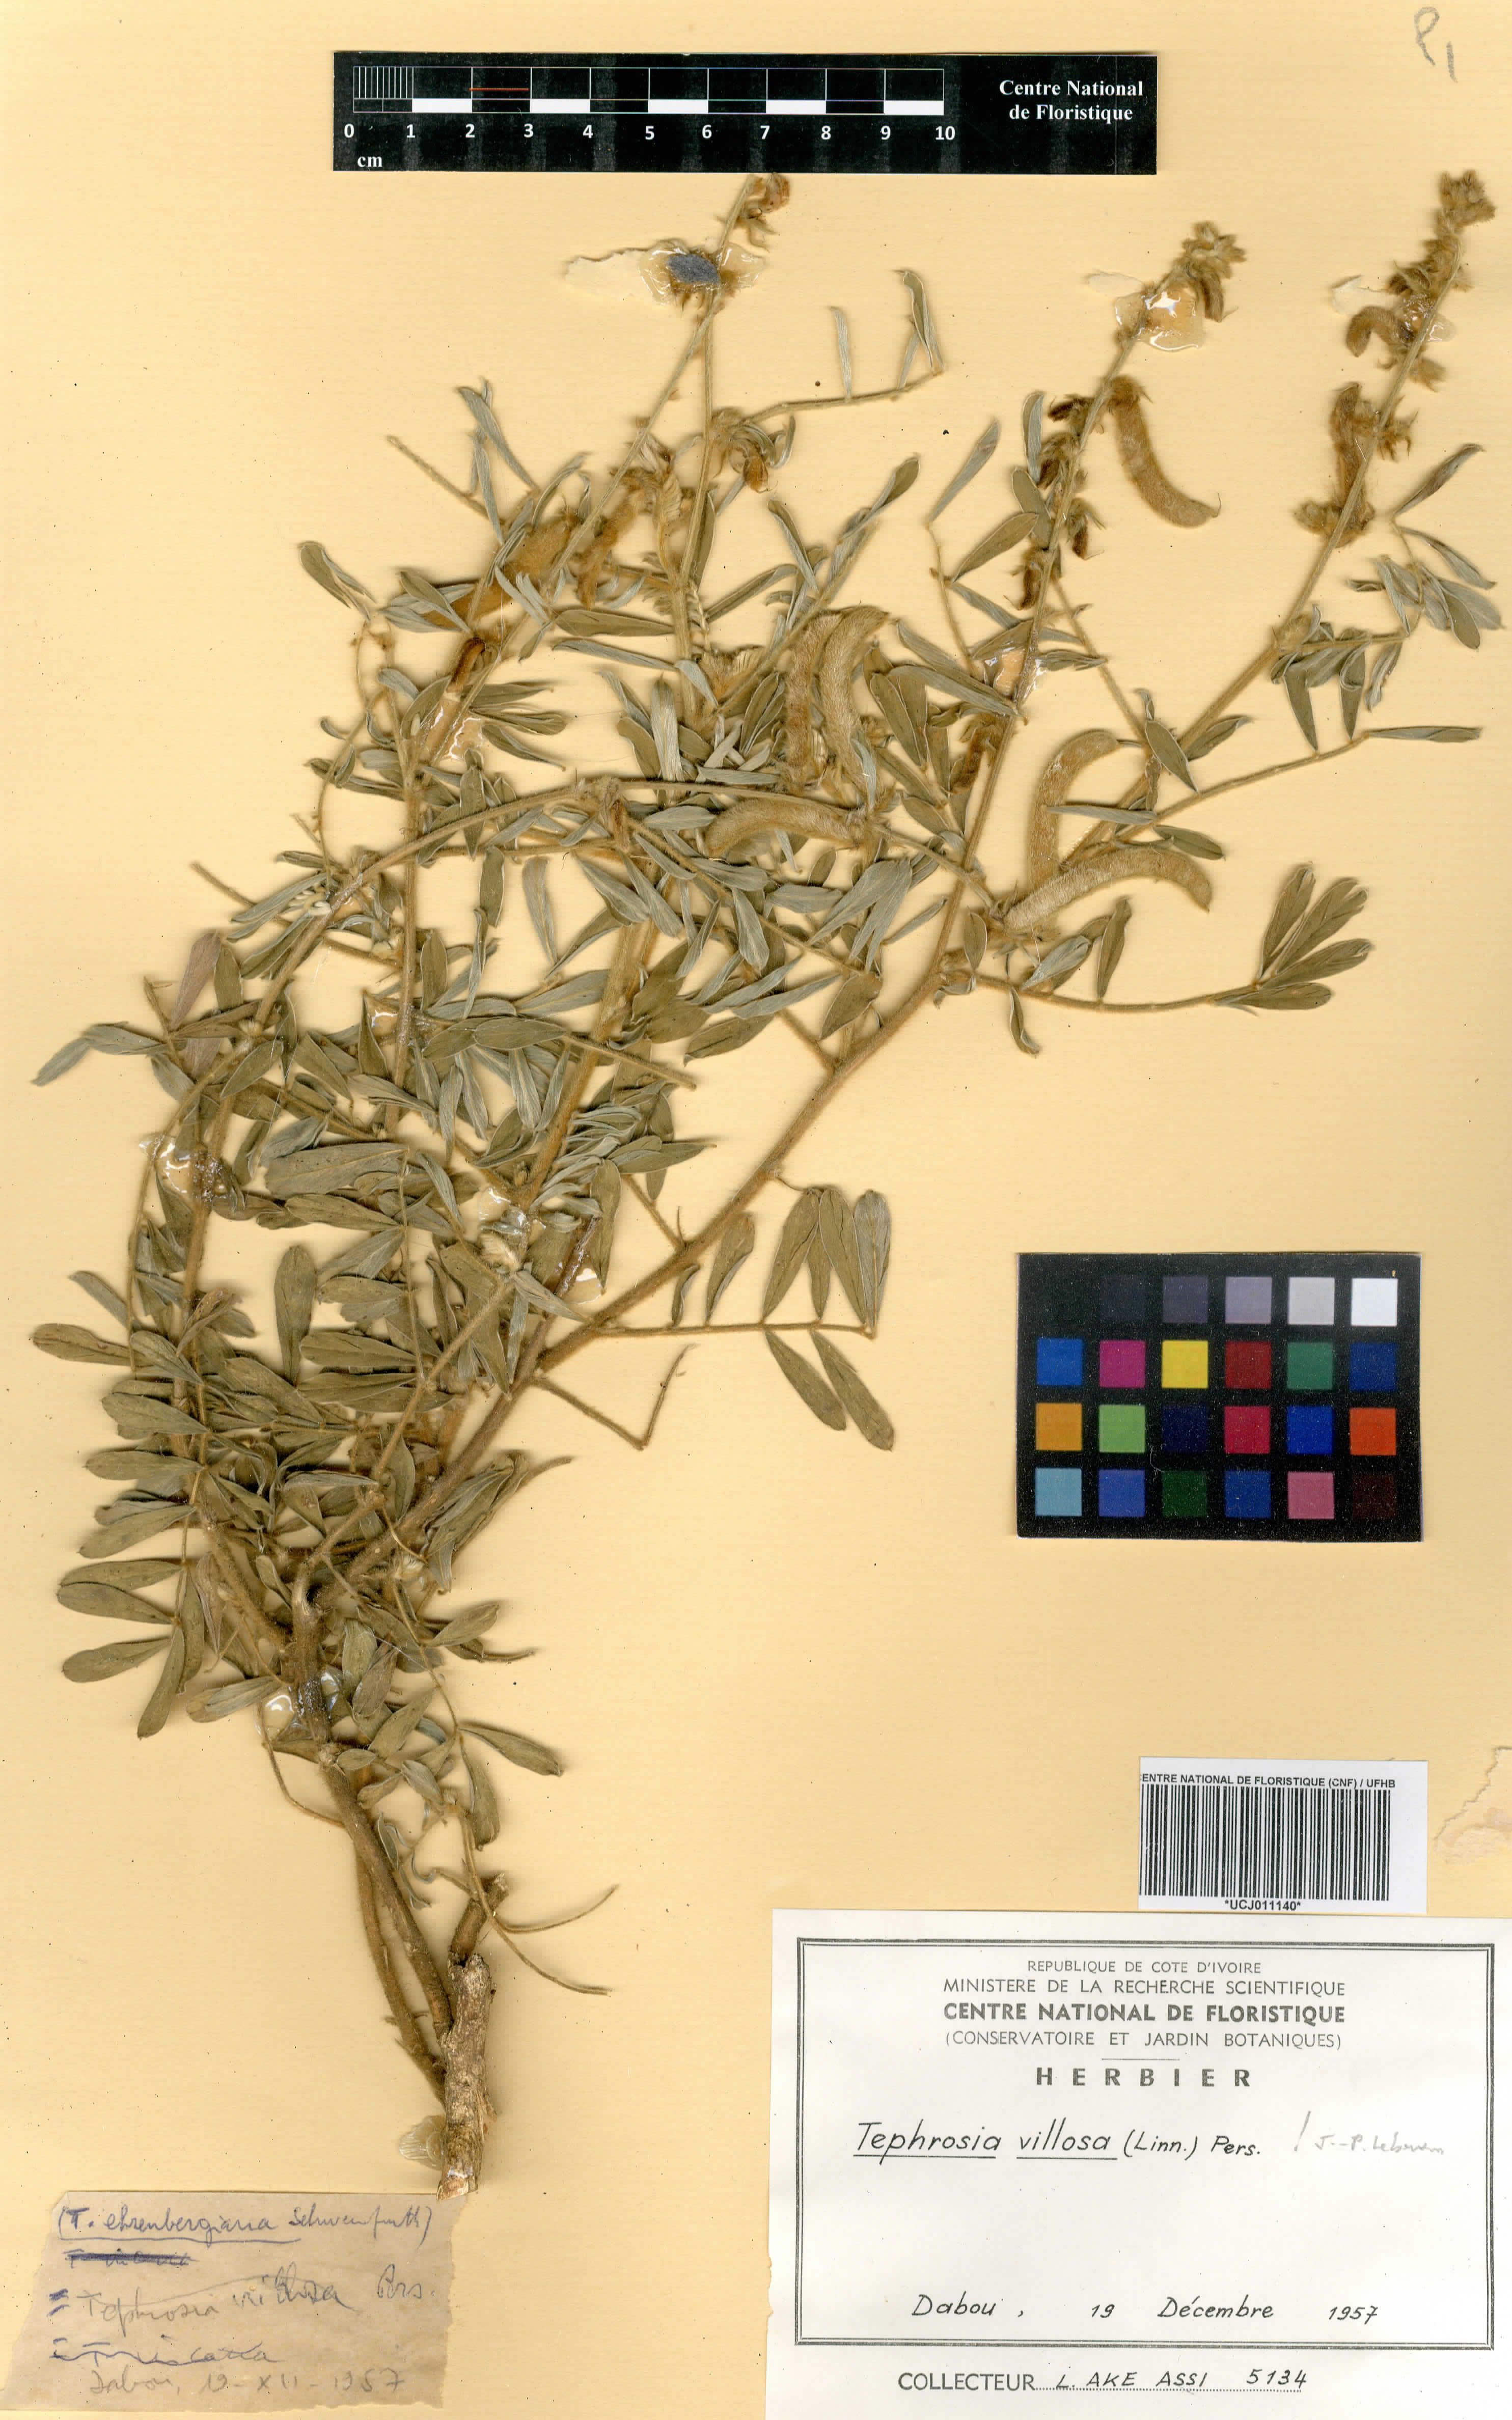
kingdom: Plantae
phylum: Tracheophyta
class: Magnoliopsida
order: Fabales
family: Fabaceae
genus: Tephrosia
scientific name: Tephrosia villosa
